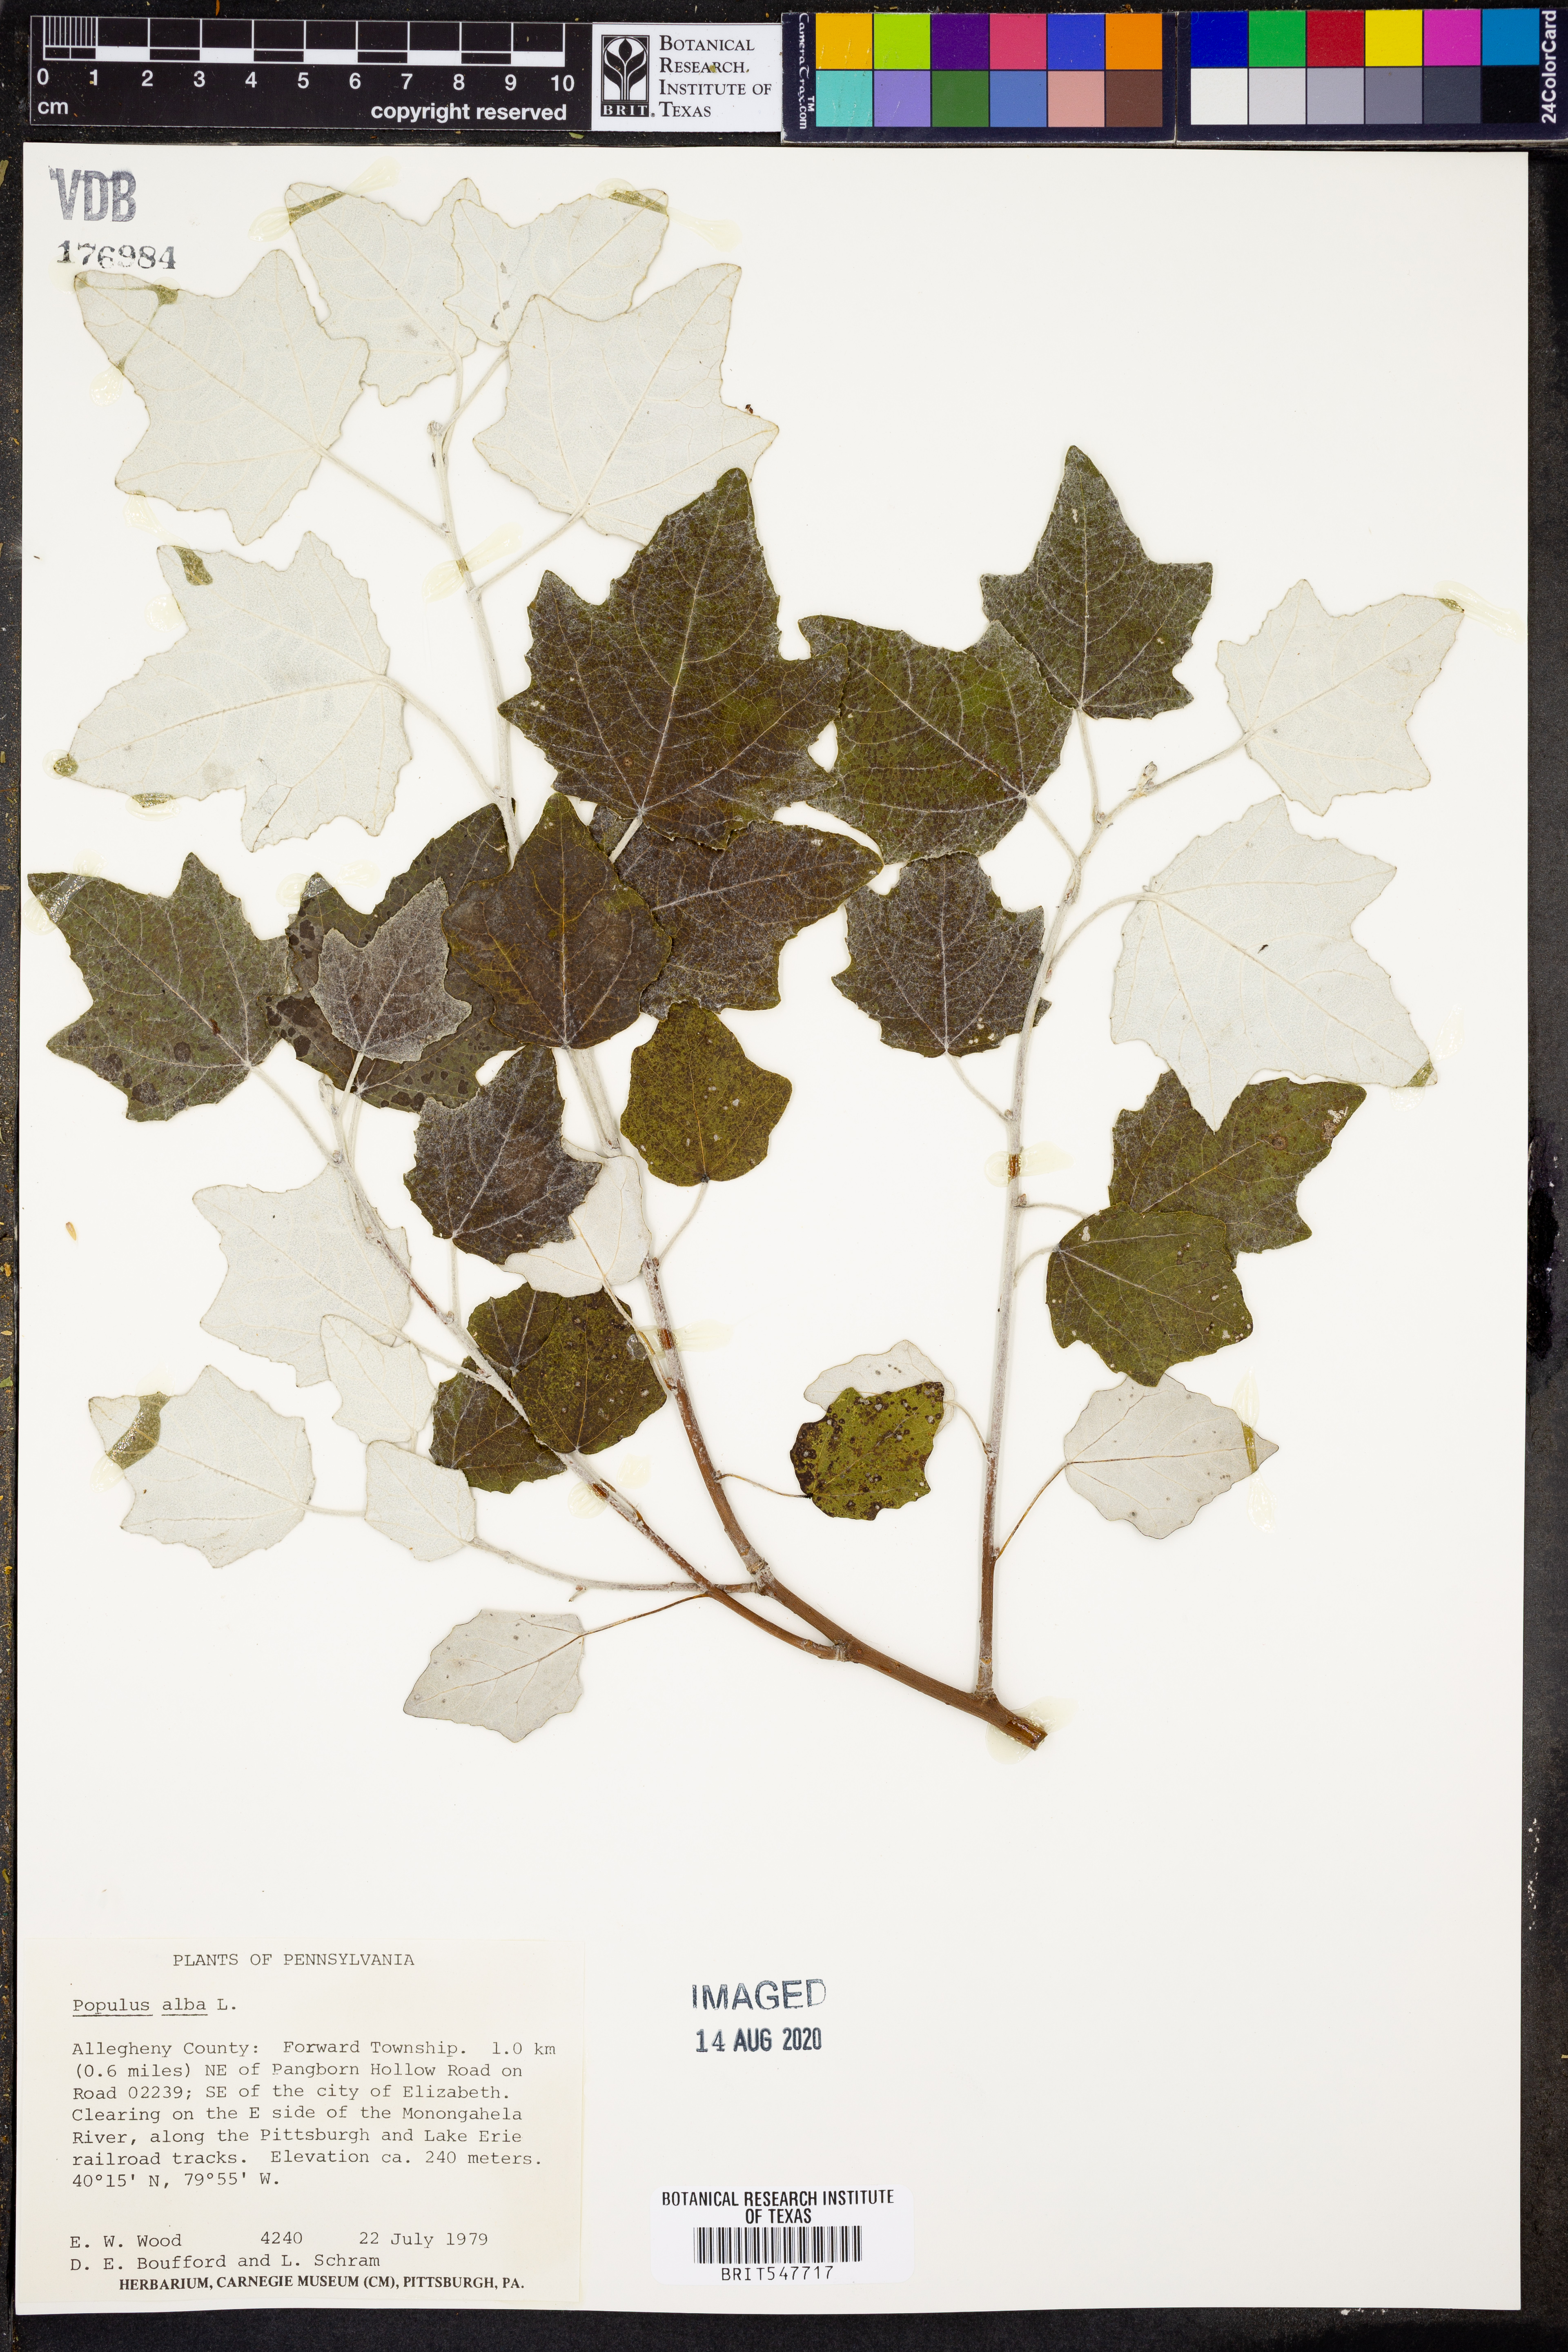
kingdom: Plantae
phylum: Tracheophyta
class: Magnoliopsida
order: Malpighiales
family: Salicaceae
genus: Populus
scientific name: Populus alba
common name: White poplar
